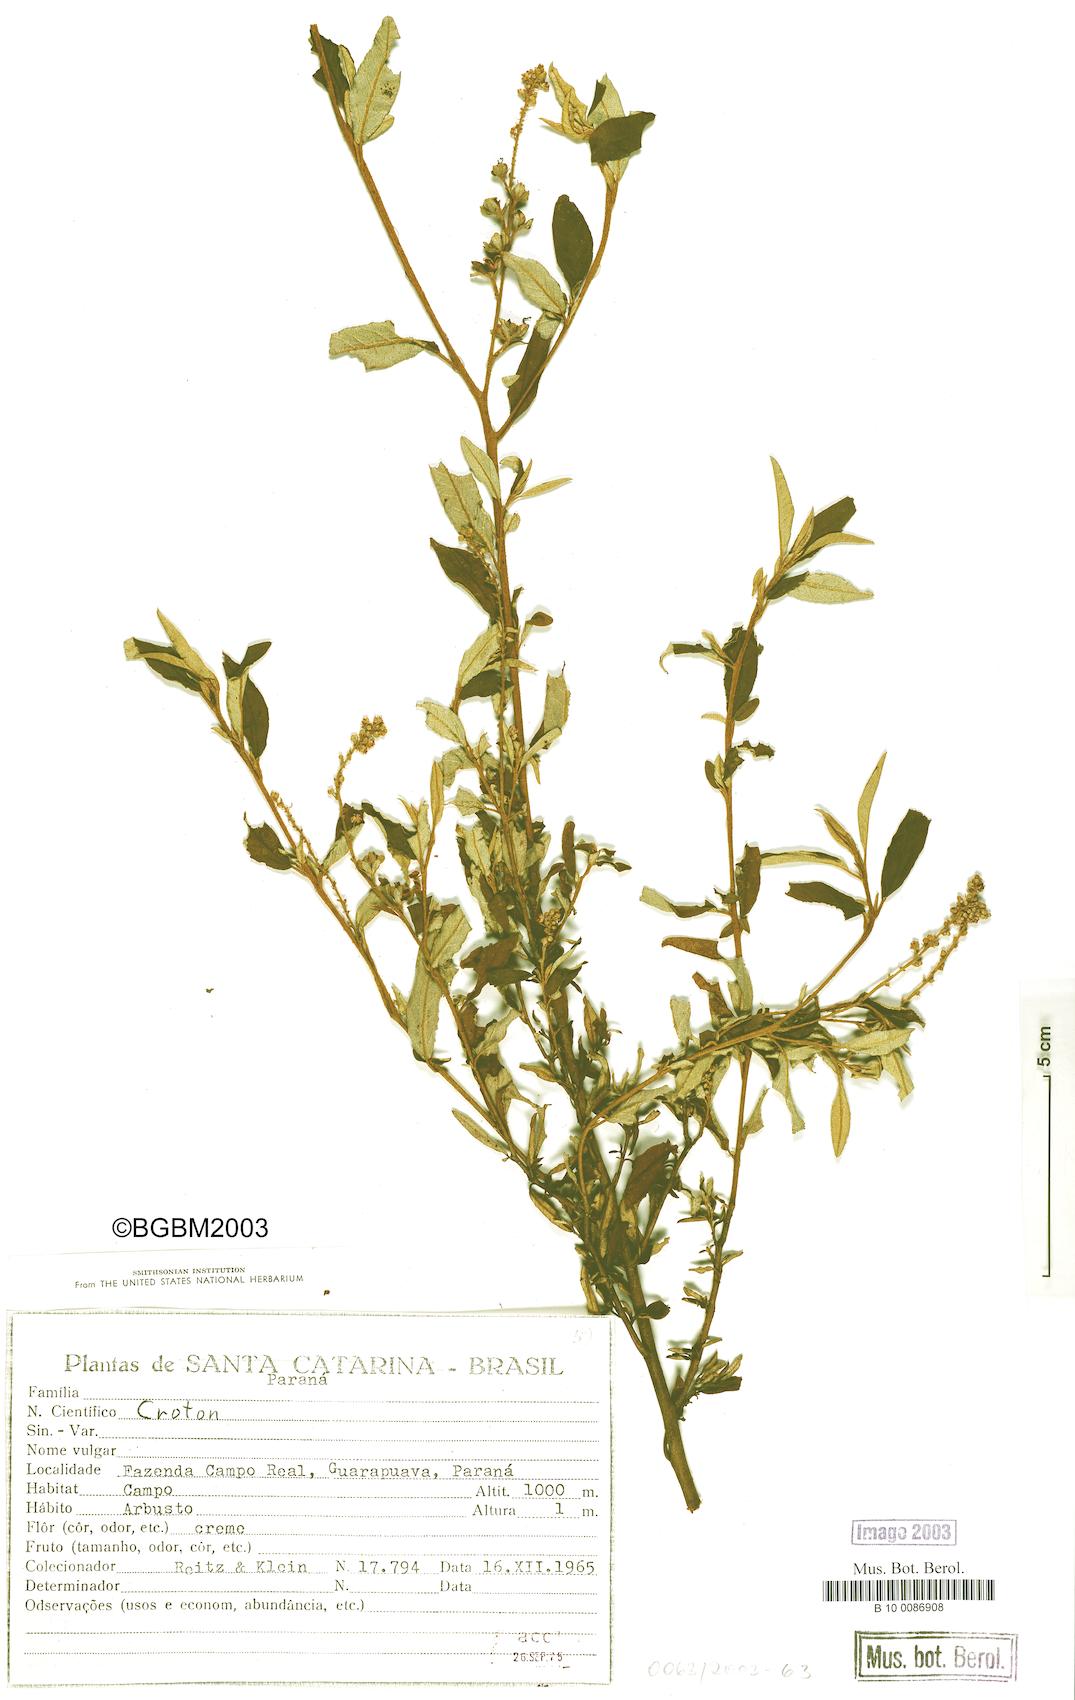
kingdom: Plantae
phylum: Tracheophyta
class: Magnoliopsida
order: Malpighiales
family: Euphorbiaceae
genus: Croton
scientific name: Croton
